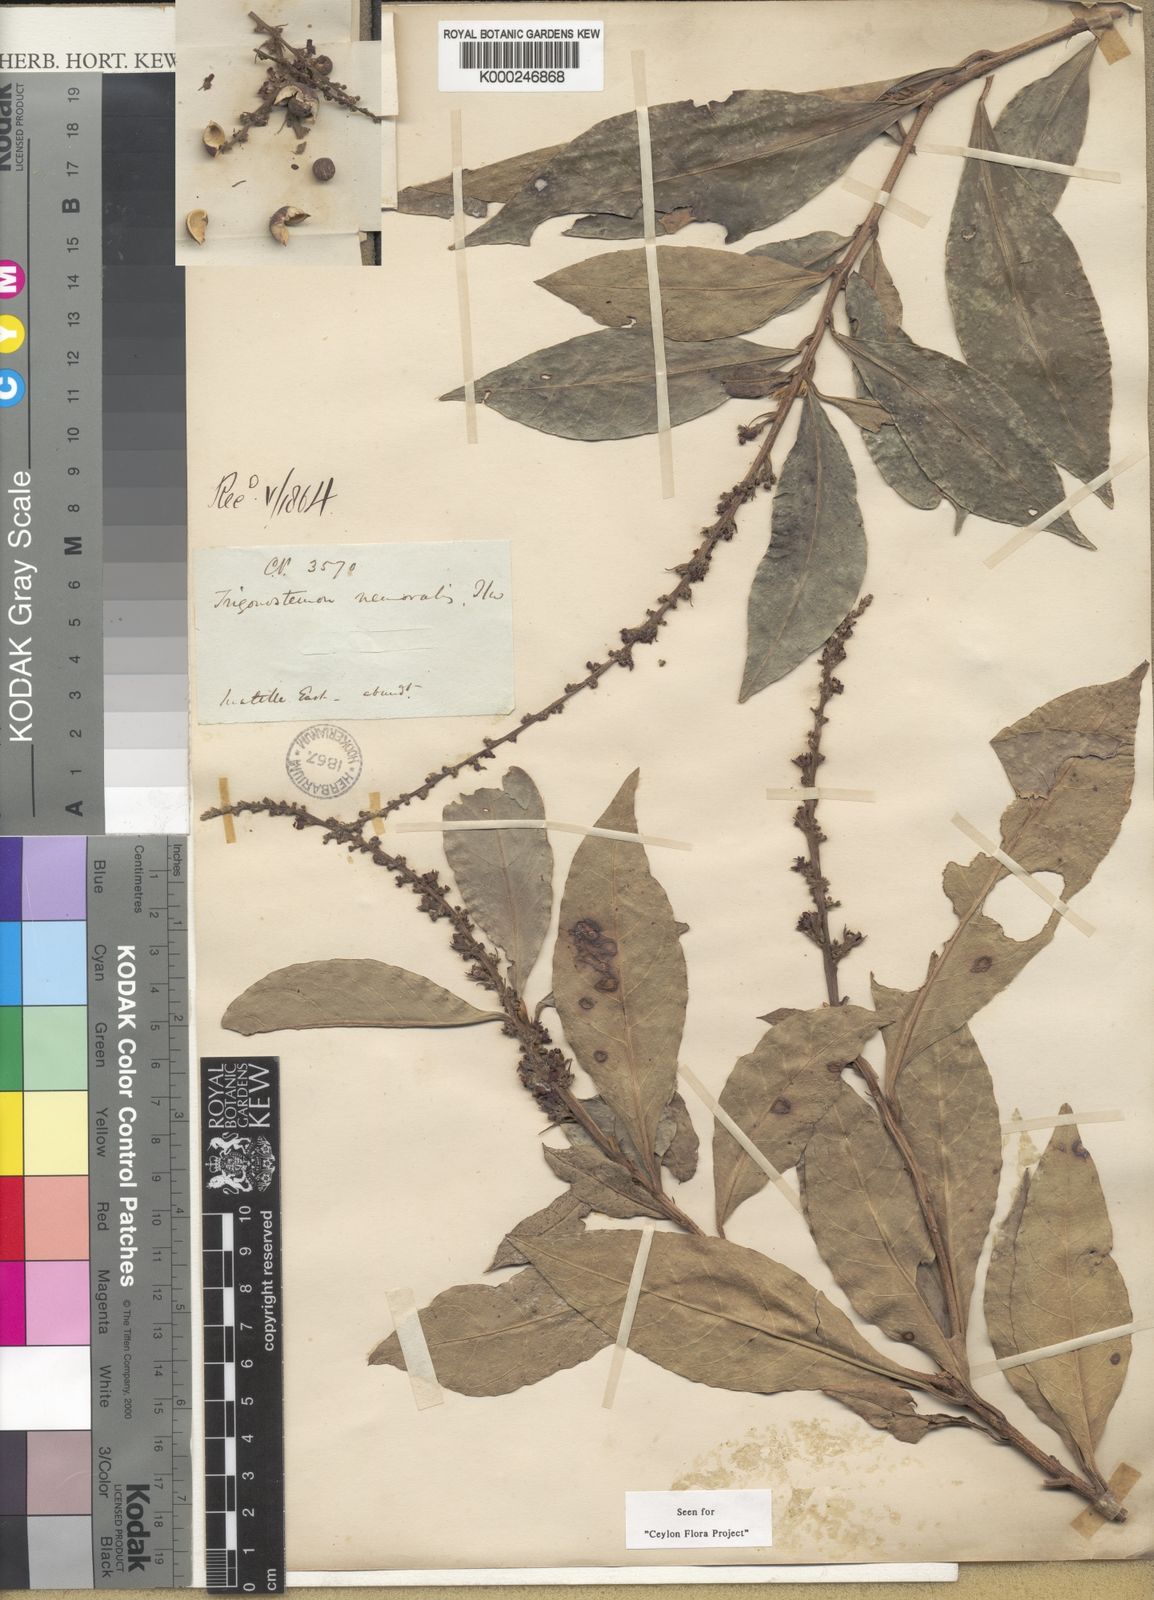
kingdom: Plantae
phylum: Tracheophyta
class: Magnoliopsida
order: Malpighiales
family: Euphorbiaceae
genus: Trigonostemon
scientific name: Trigonostemon nemoralis
